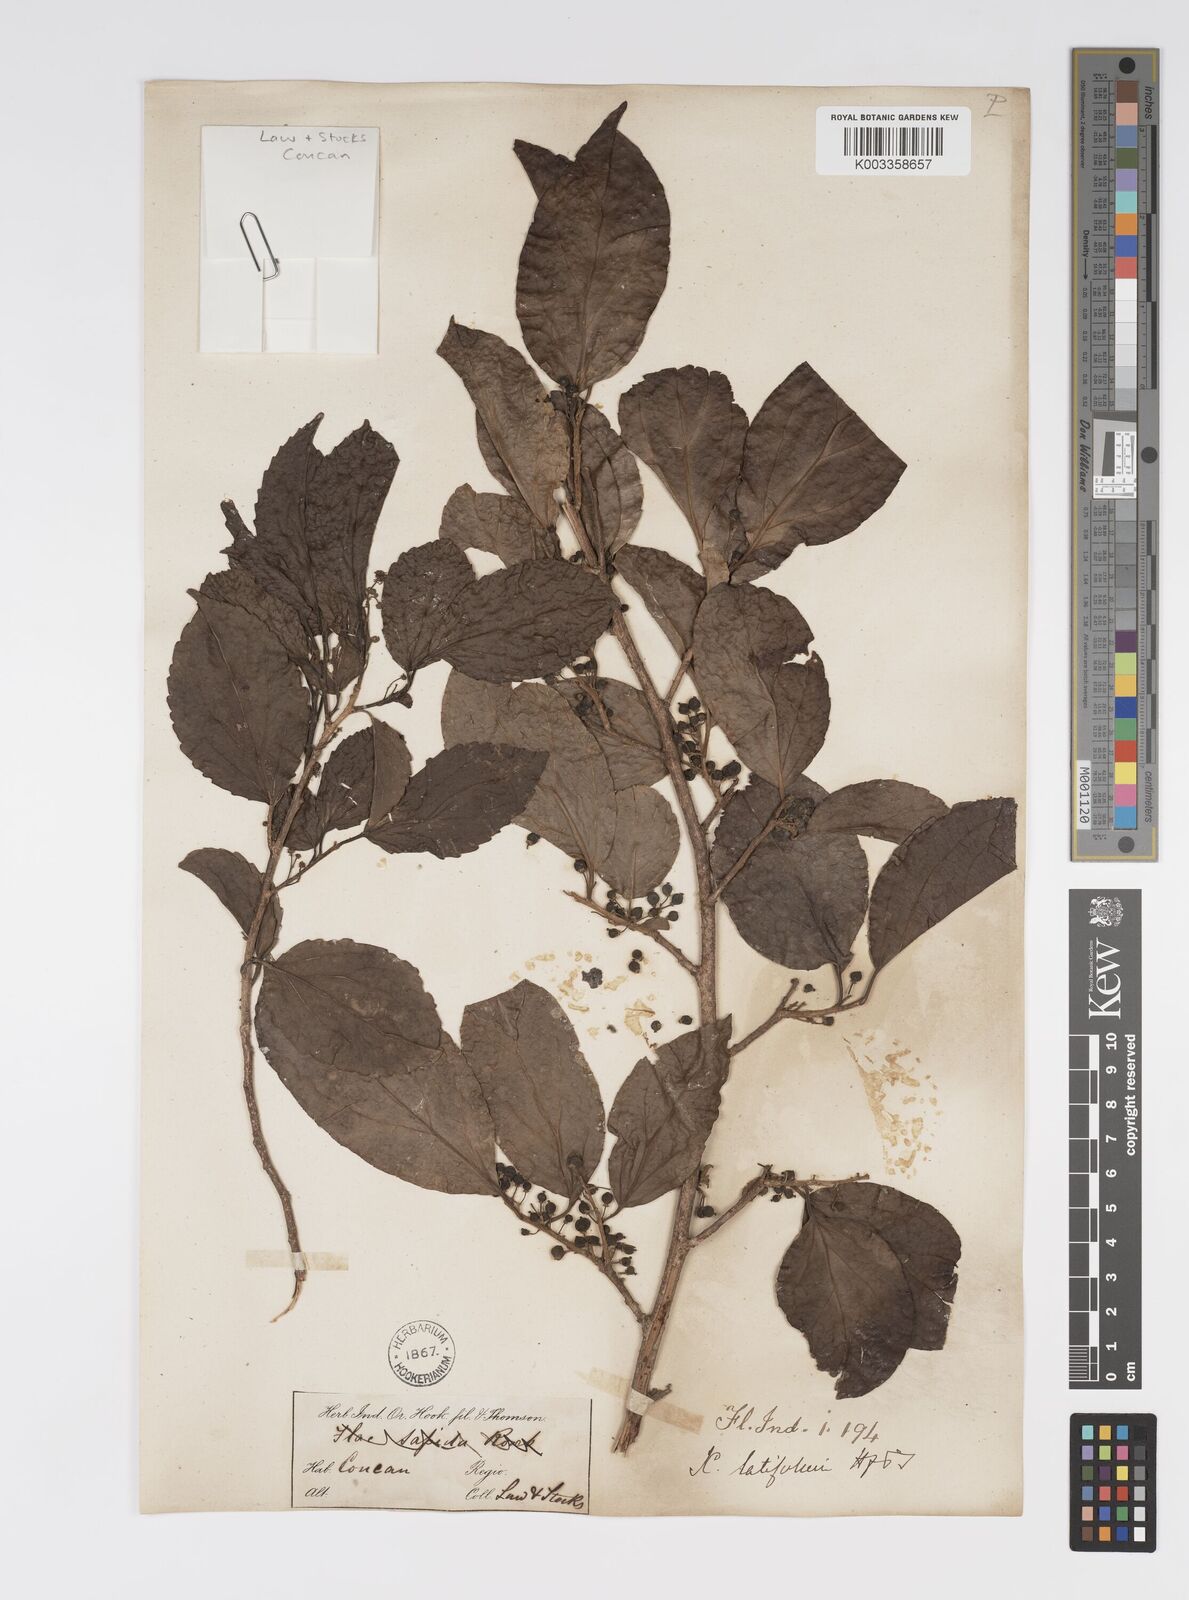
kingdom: Plantae
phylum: Tracheophyta
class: Magnoliopsida
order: Malpighiales
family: Salicaceae
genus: Xylosma
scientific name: Xylosma longifolia
